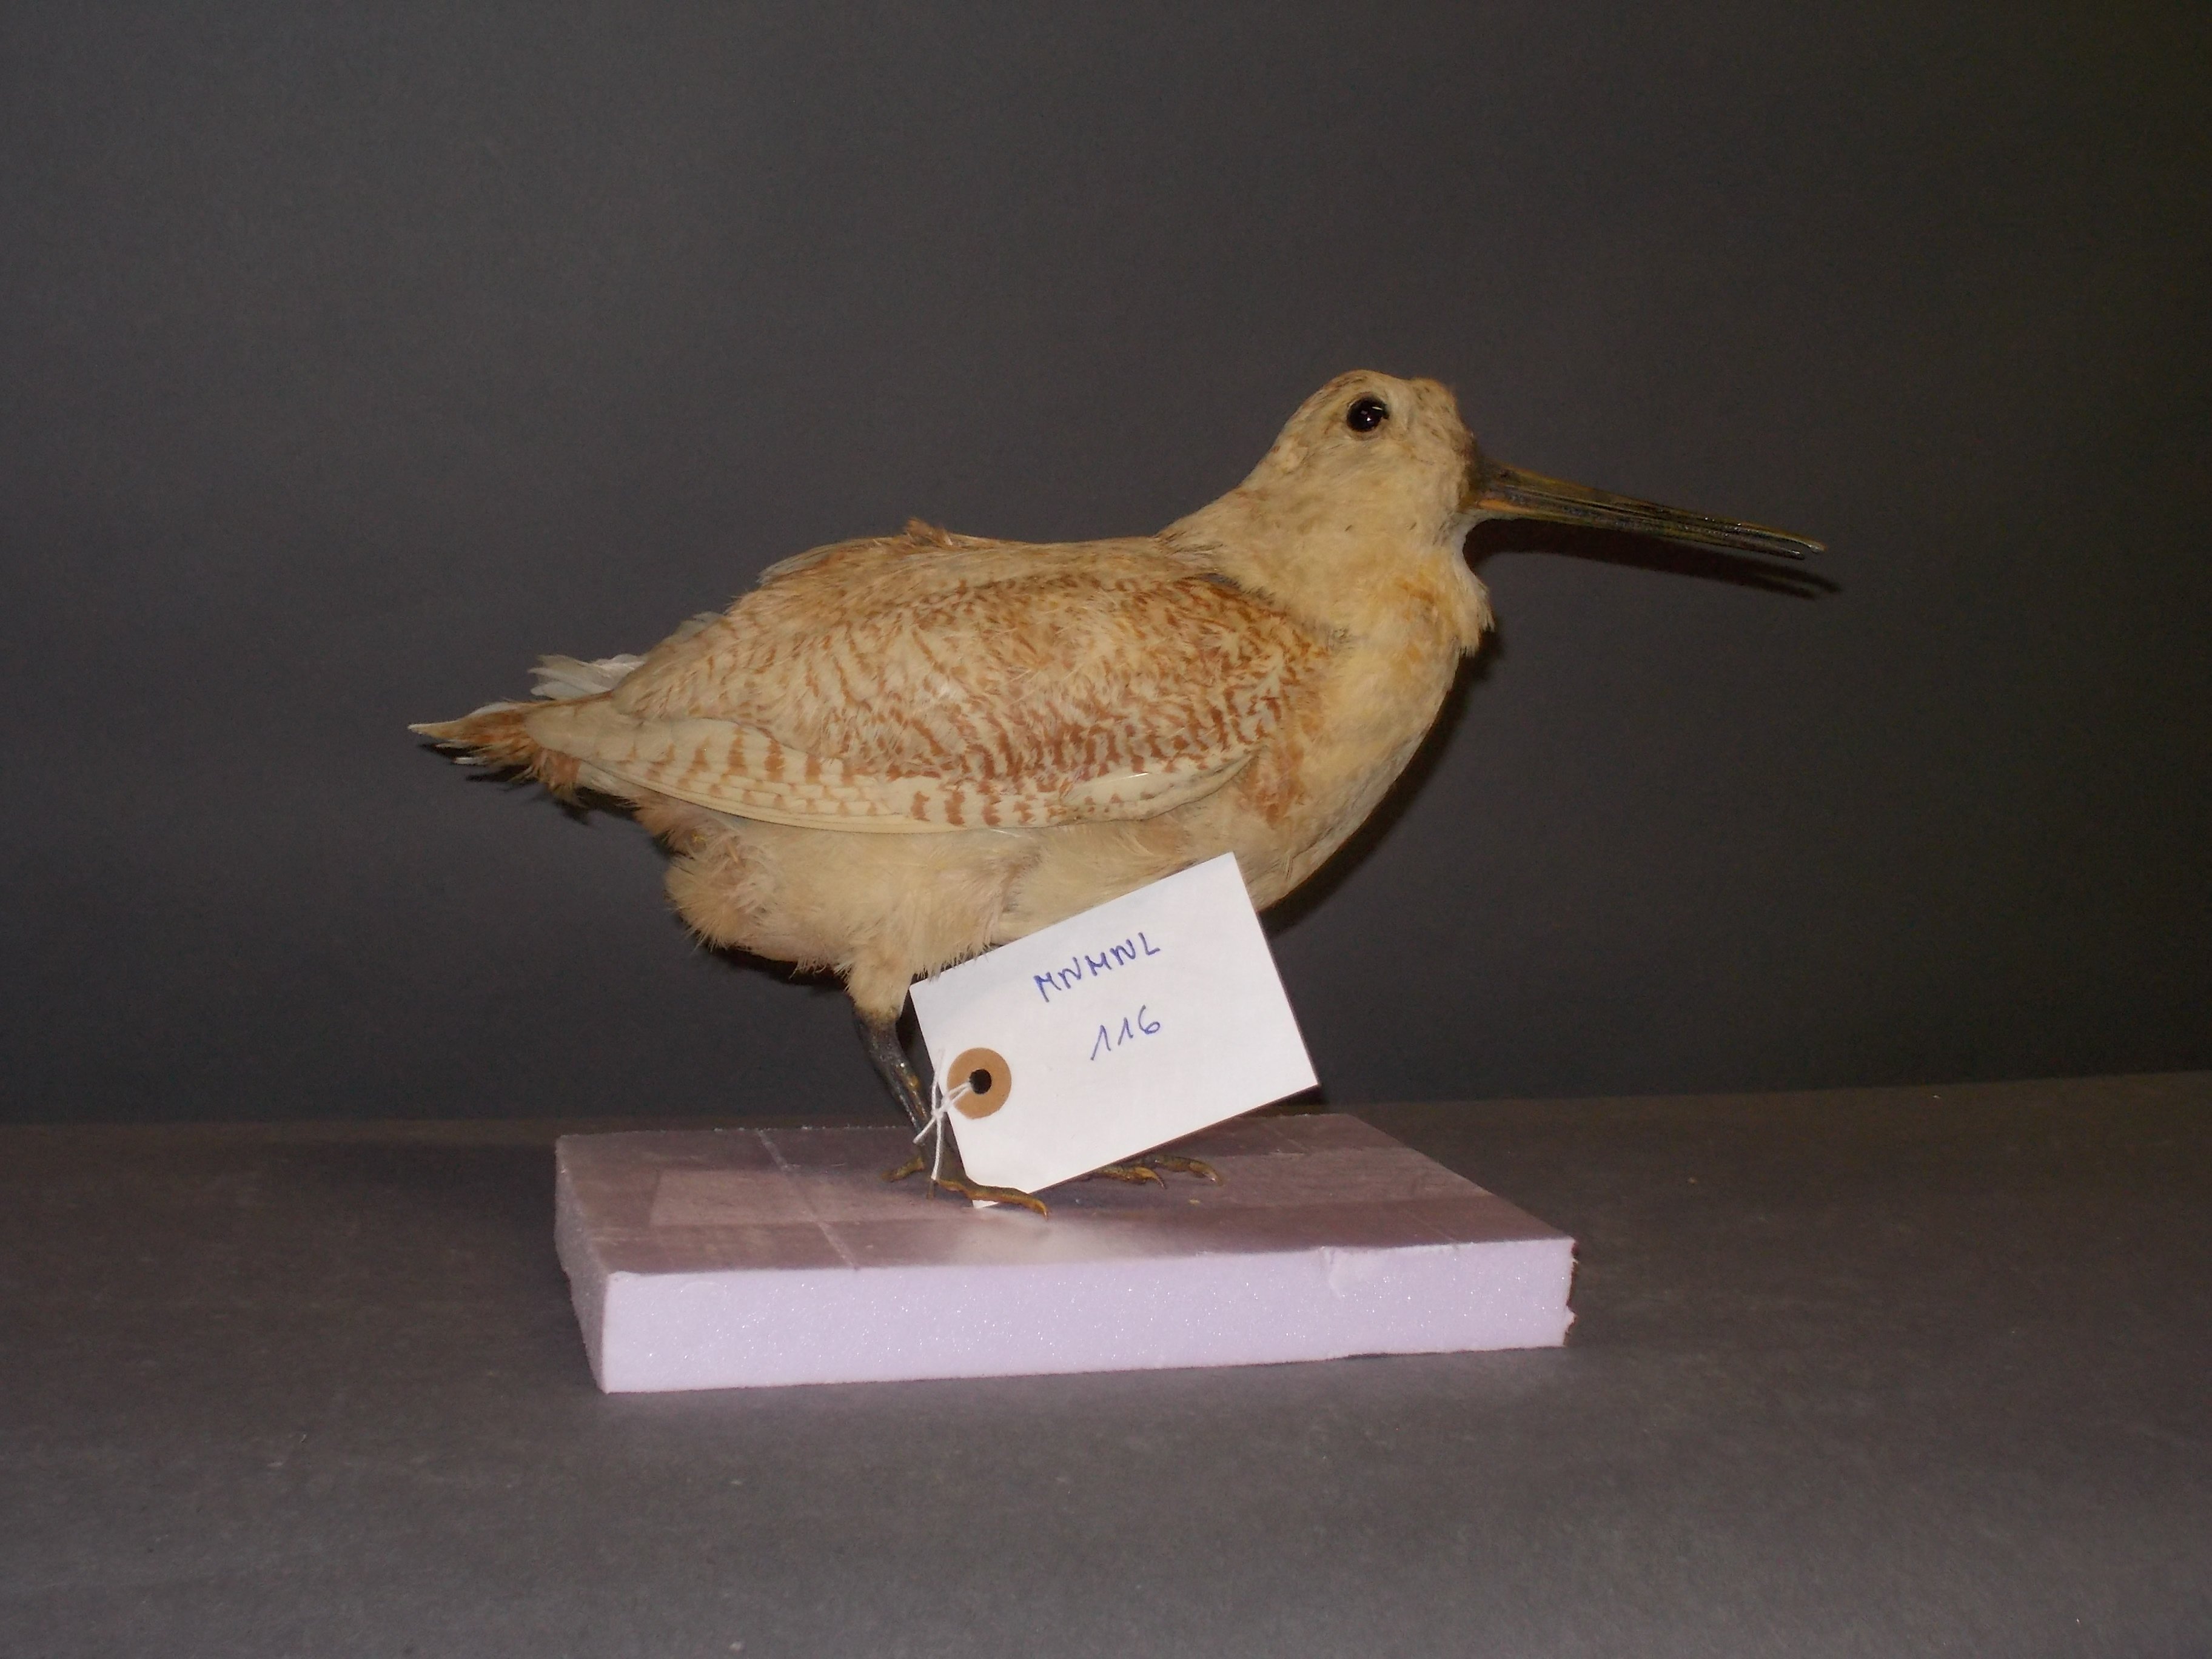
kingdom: Animalia
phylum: Chordata
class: Aves
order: Charadriiformes
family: Scolopacidae
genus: Scolopax
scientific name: Scolopax rusticola
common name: Eurasian woodcock
